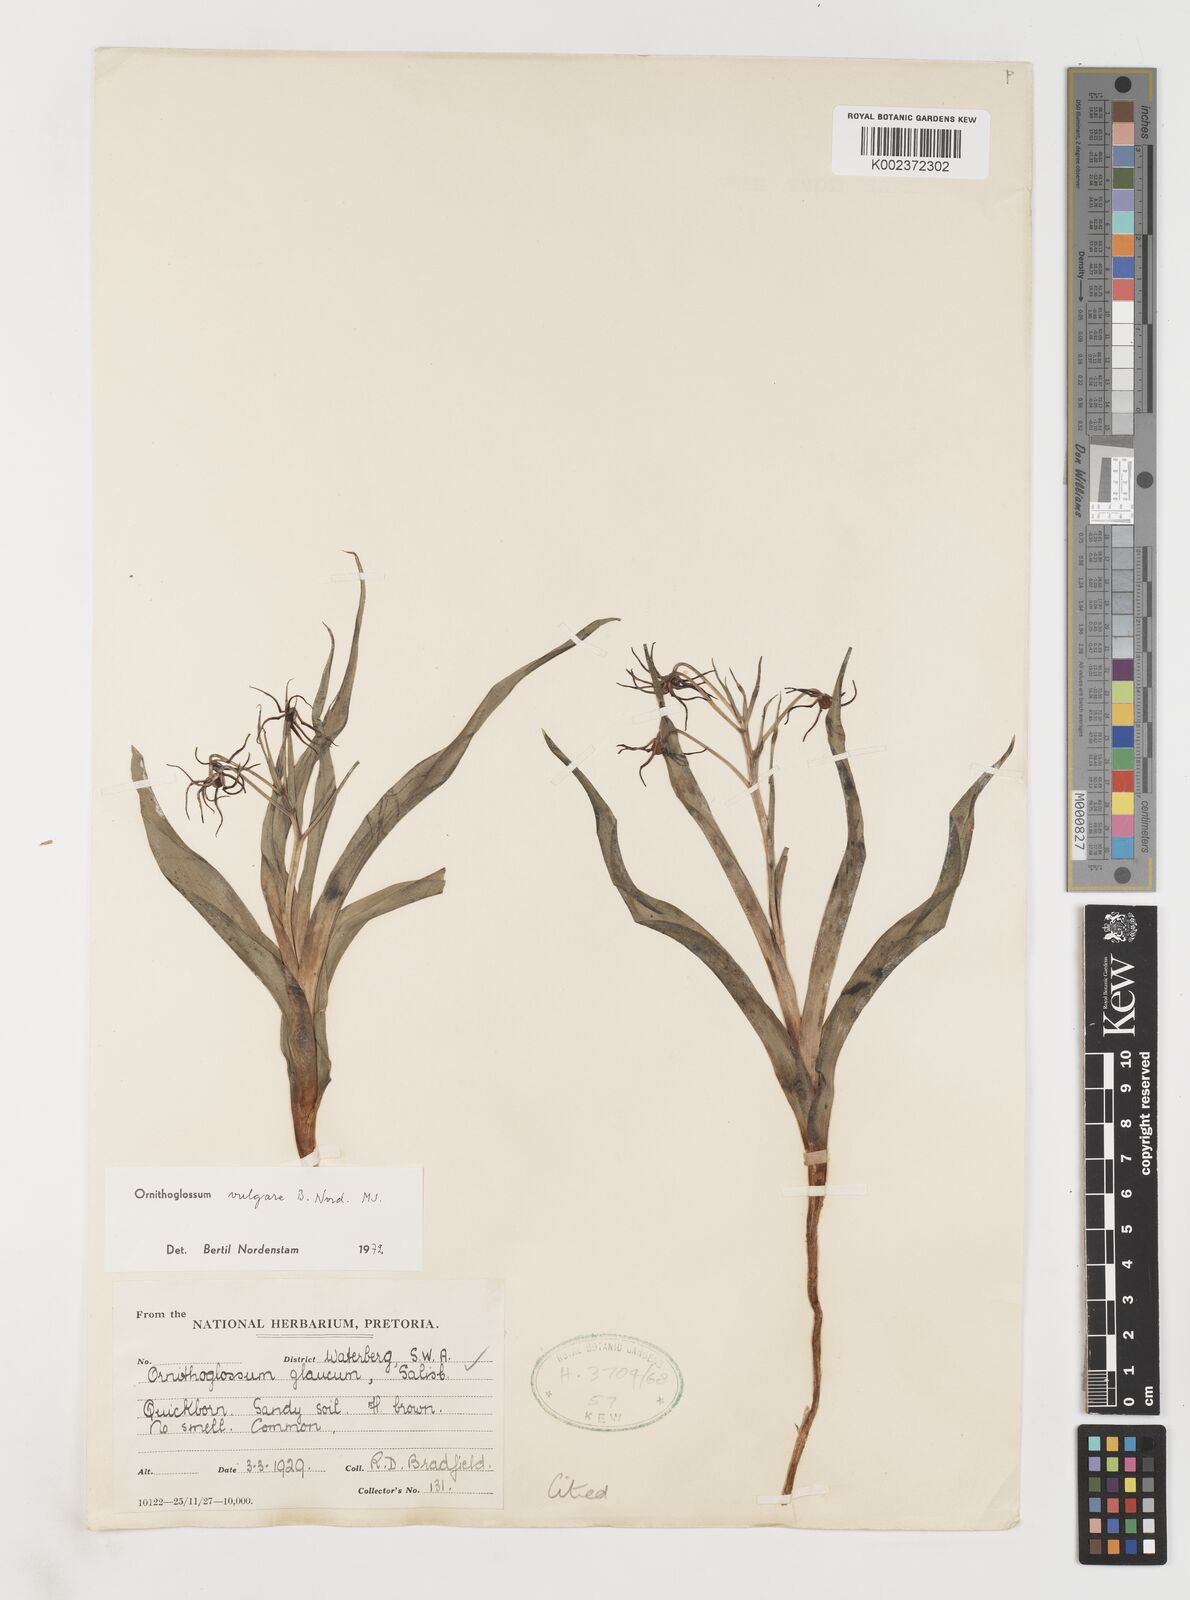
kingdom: Plantae
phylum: Tracheophyta
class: Liliopsida
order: Liliales
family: Colchicaceae
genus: Ornithoglossum
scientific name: Ornithoglossum vulgare
